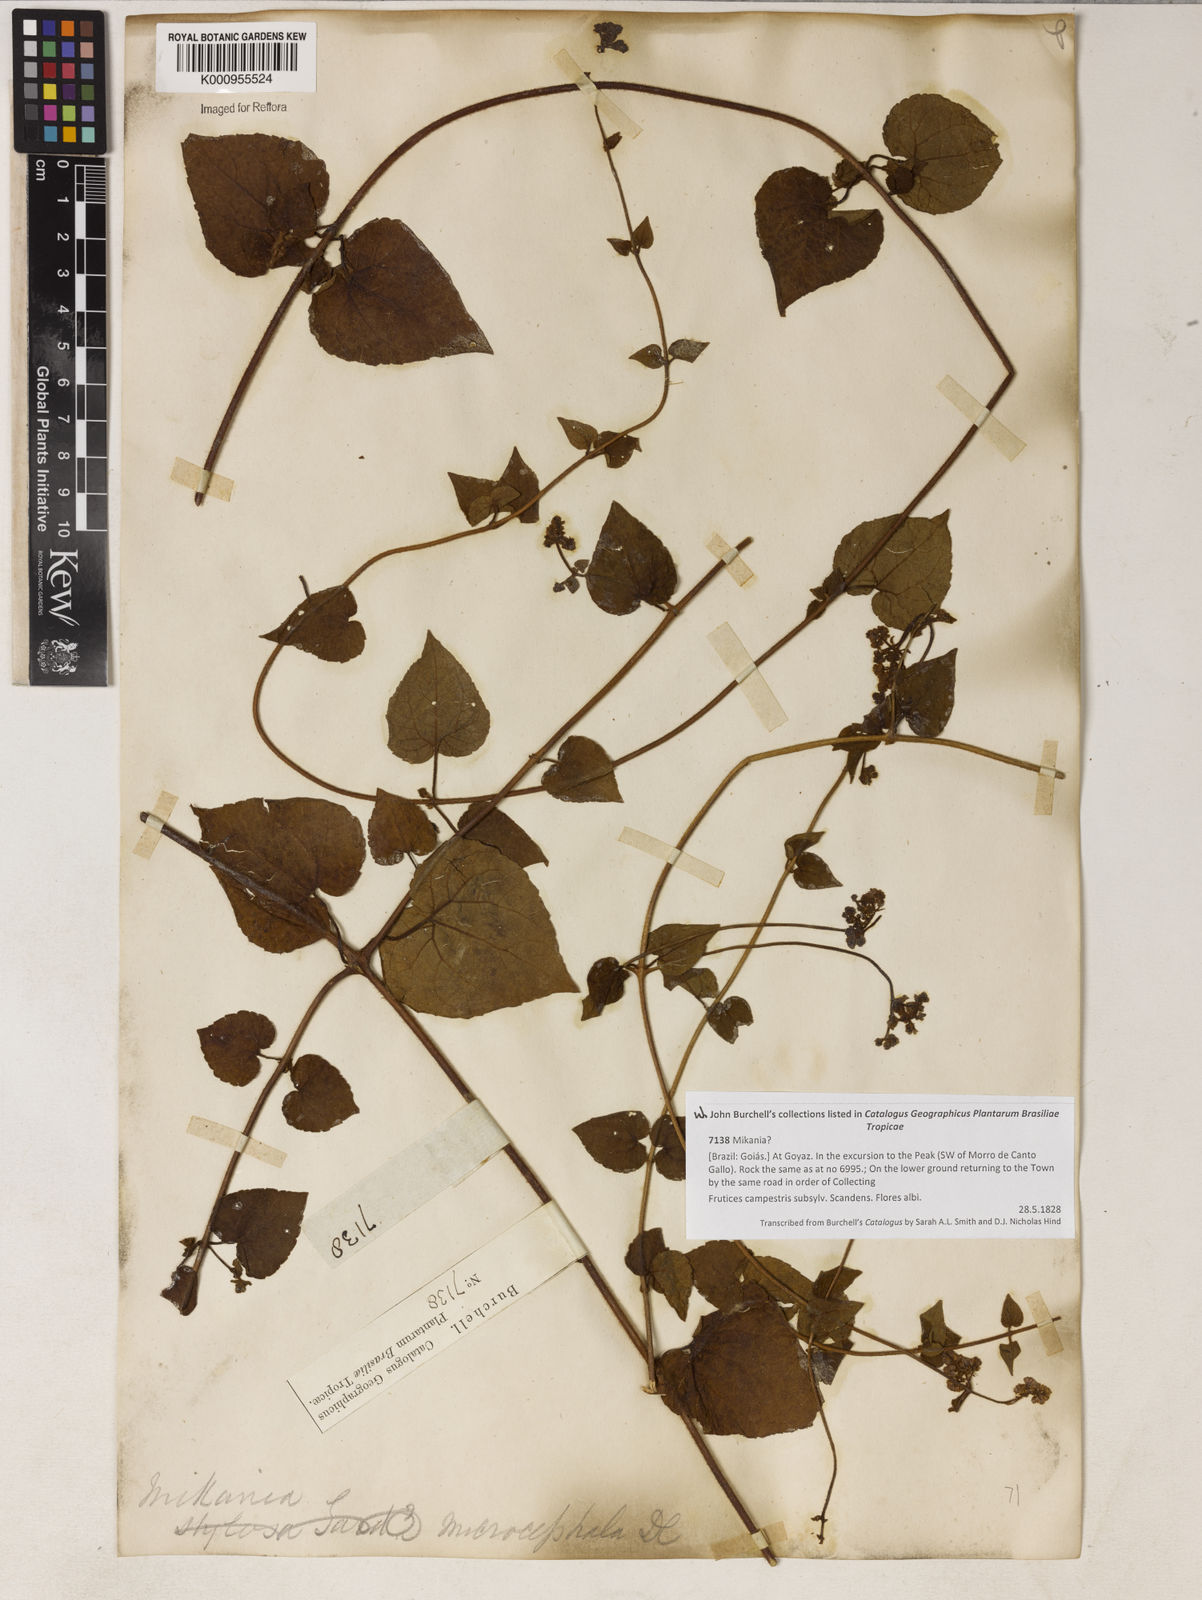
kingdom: Plantae
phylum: Tracheophyta
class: Magnoliopsida
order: Asterales
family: Asteraceae
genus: Mikania
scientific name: Mikania microcephala
